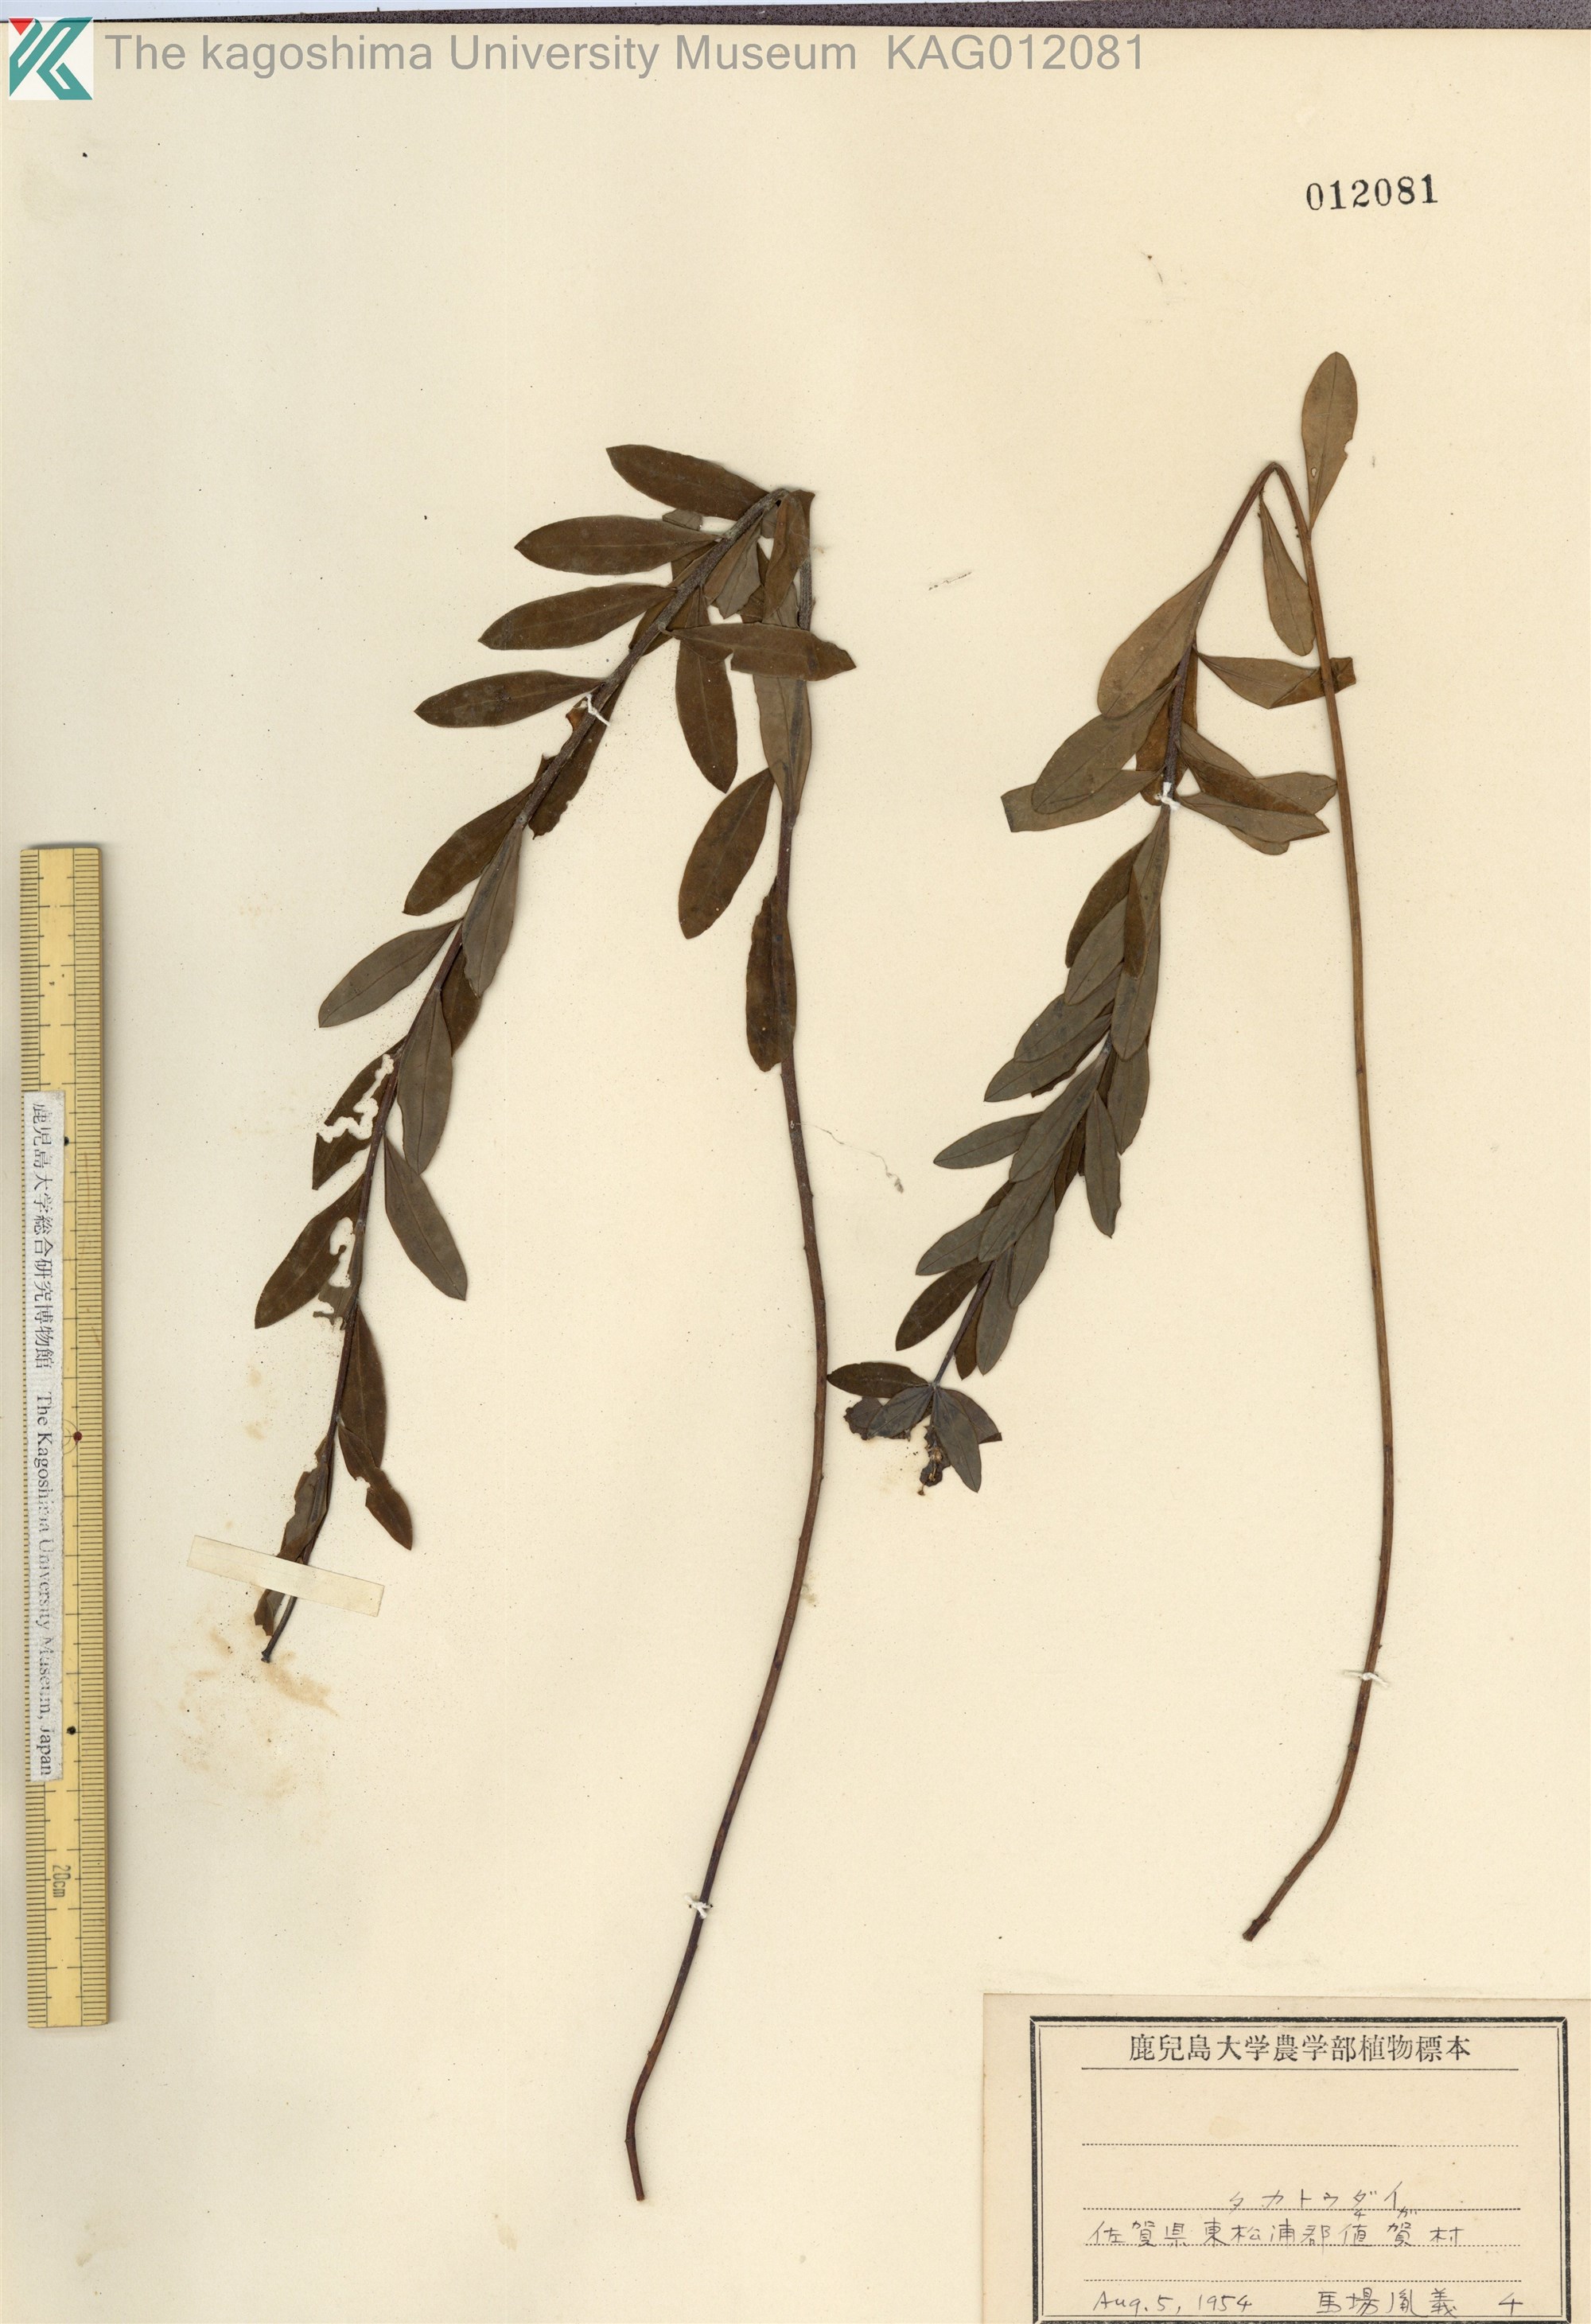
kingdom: Plantae
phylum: Tracheophyta
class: Magnoliopsida
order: Malpighiales
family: Euphorbiaceae
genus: Euphorbia
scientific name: Euphorbia pekinensis
